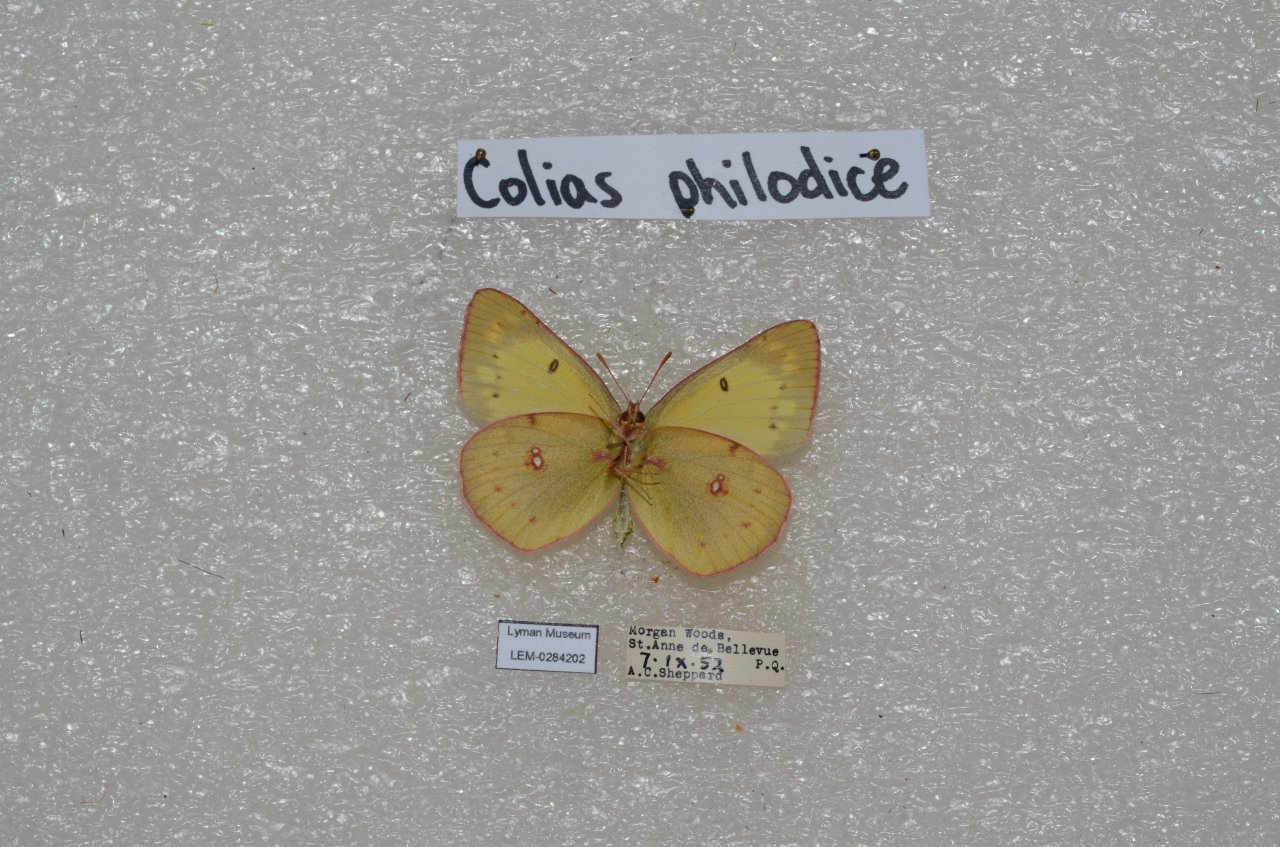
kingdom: Animalia
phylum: Arthropoda
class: Insecta
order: Lepidoptera
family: Pieridae
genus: Colias
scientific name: Colias philodice
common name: Clouded Sulphur
